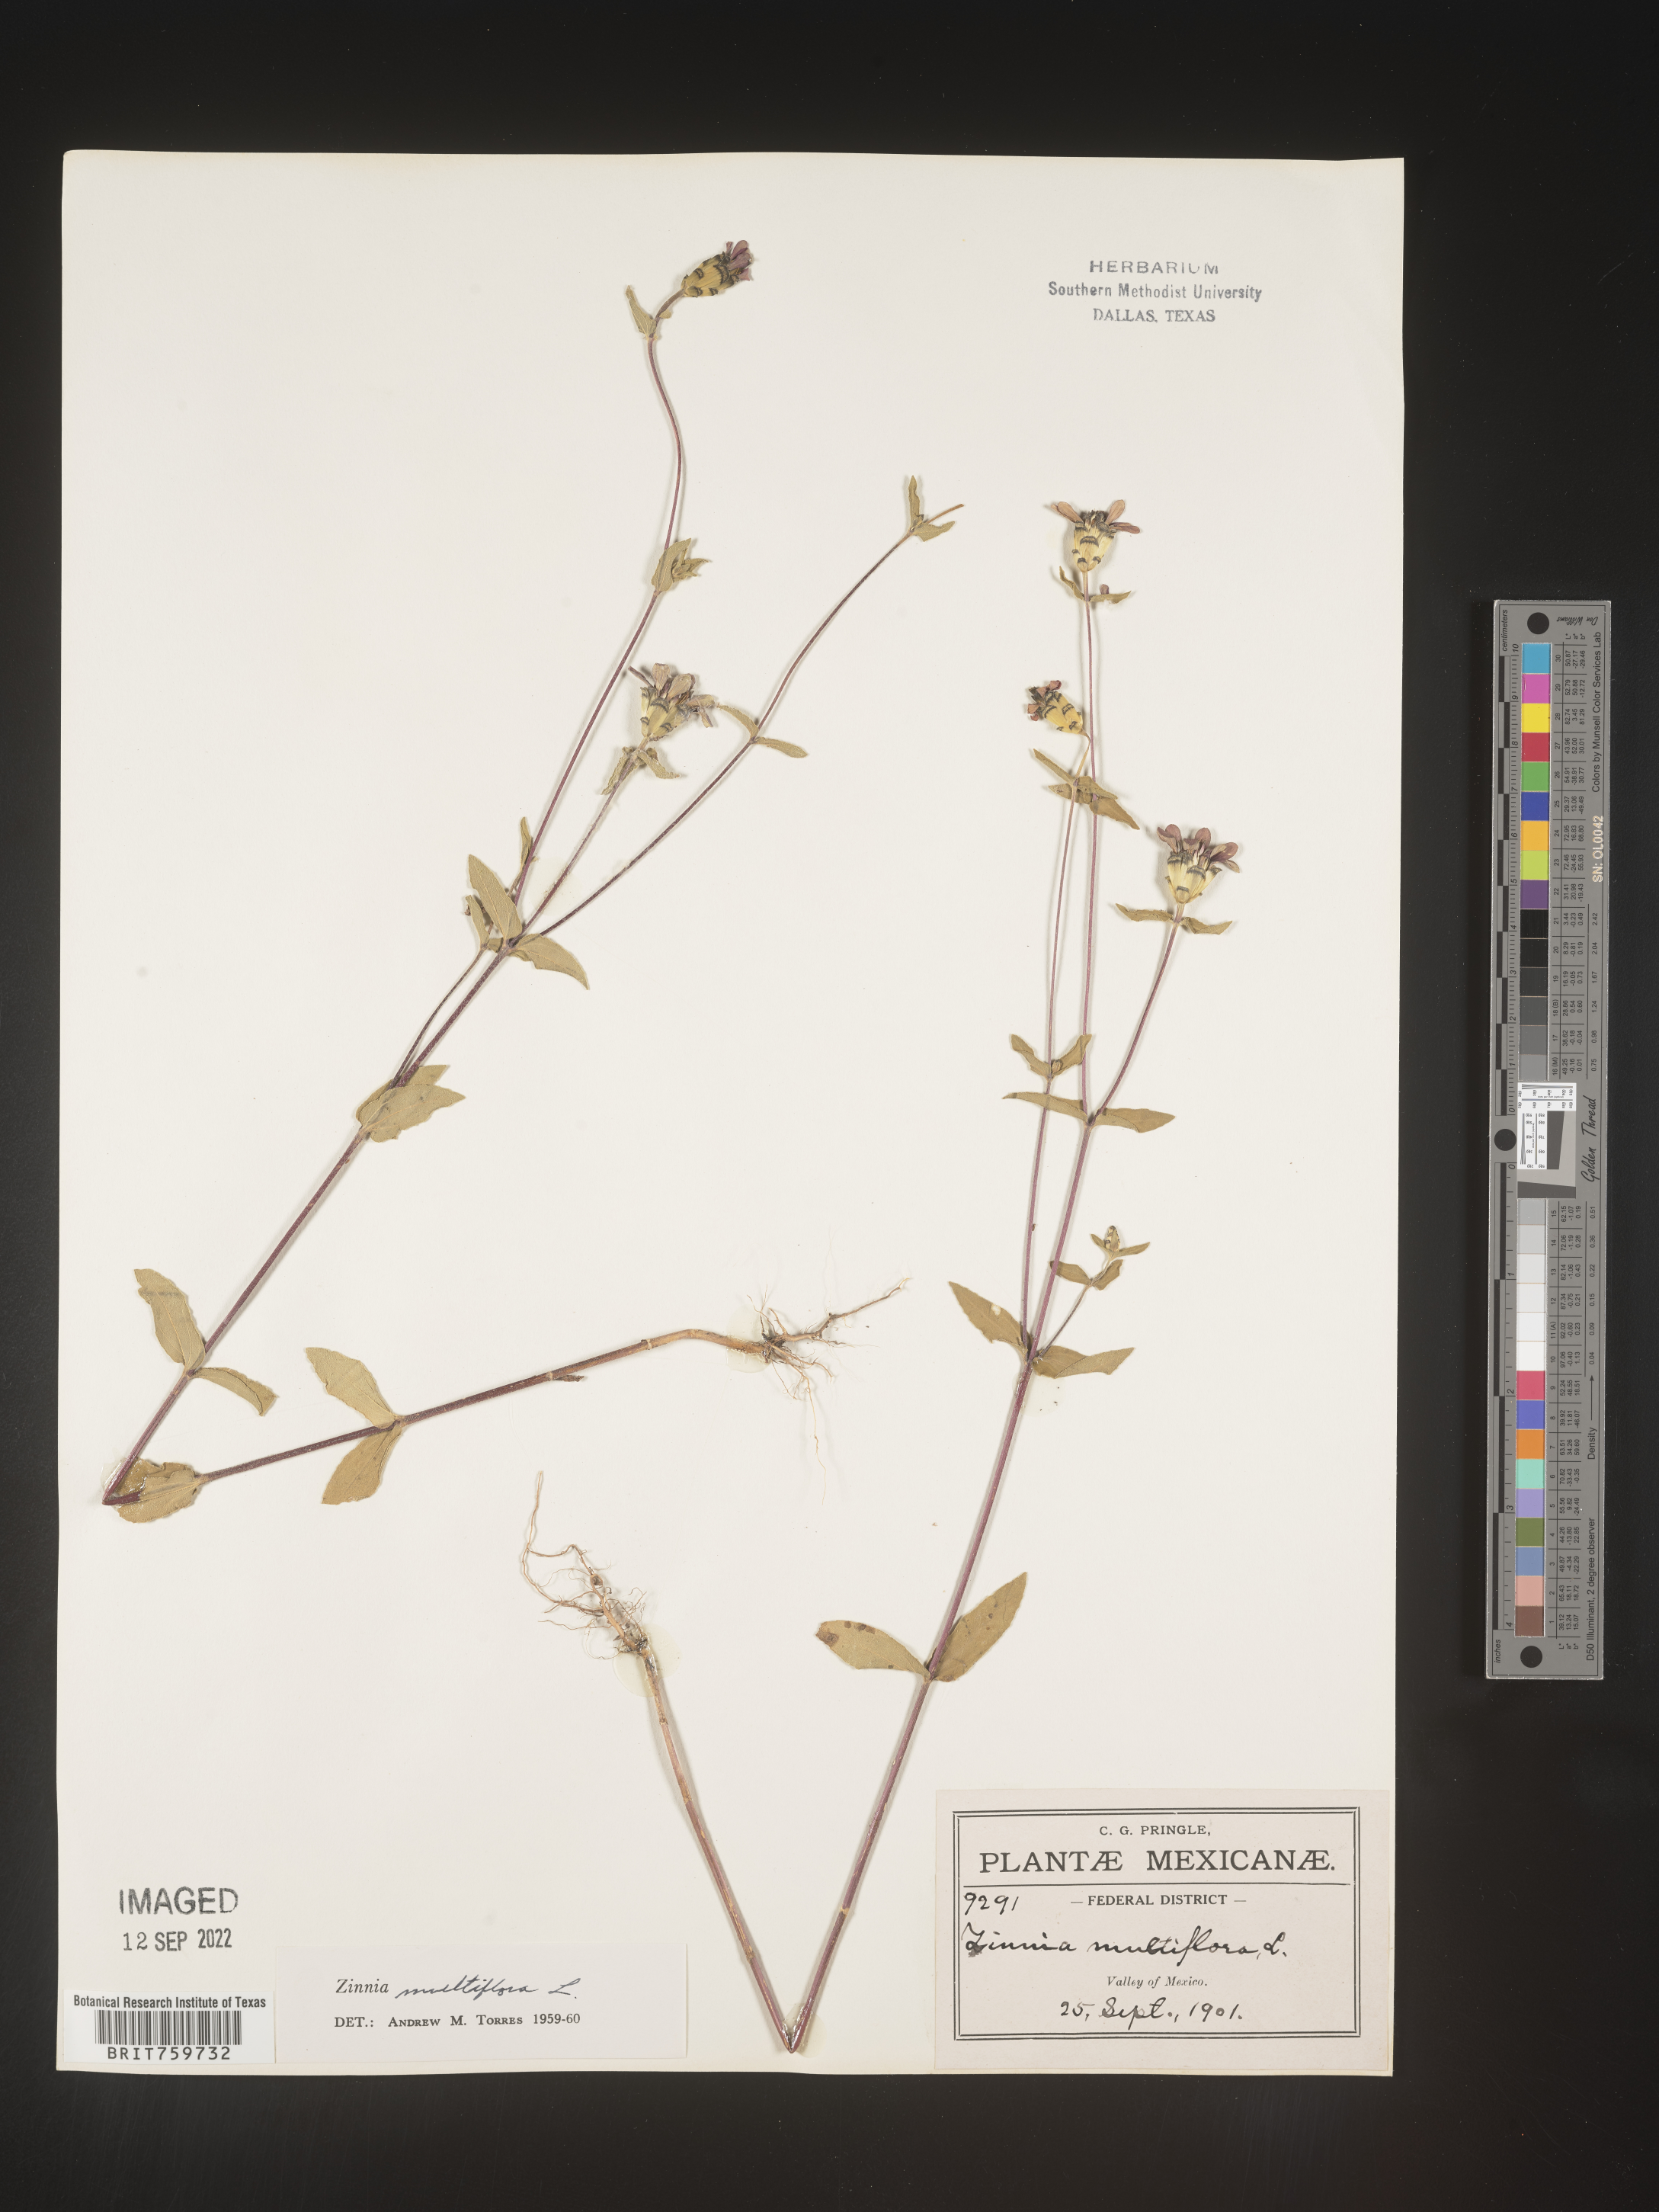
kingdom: Plantae
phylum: Tracheophyta
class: Magnoliopsida
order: Asterales
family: Asteraceae
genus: Zinnia
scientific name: Zinnia
